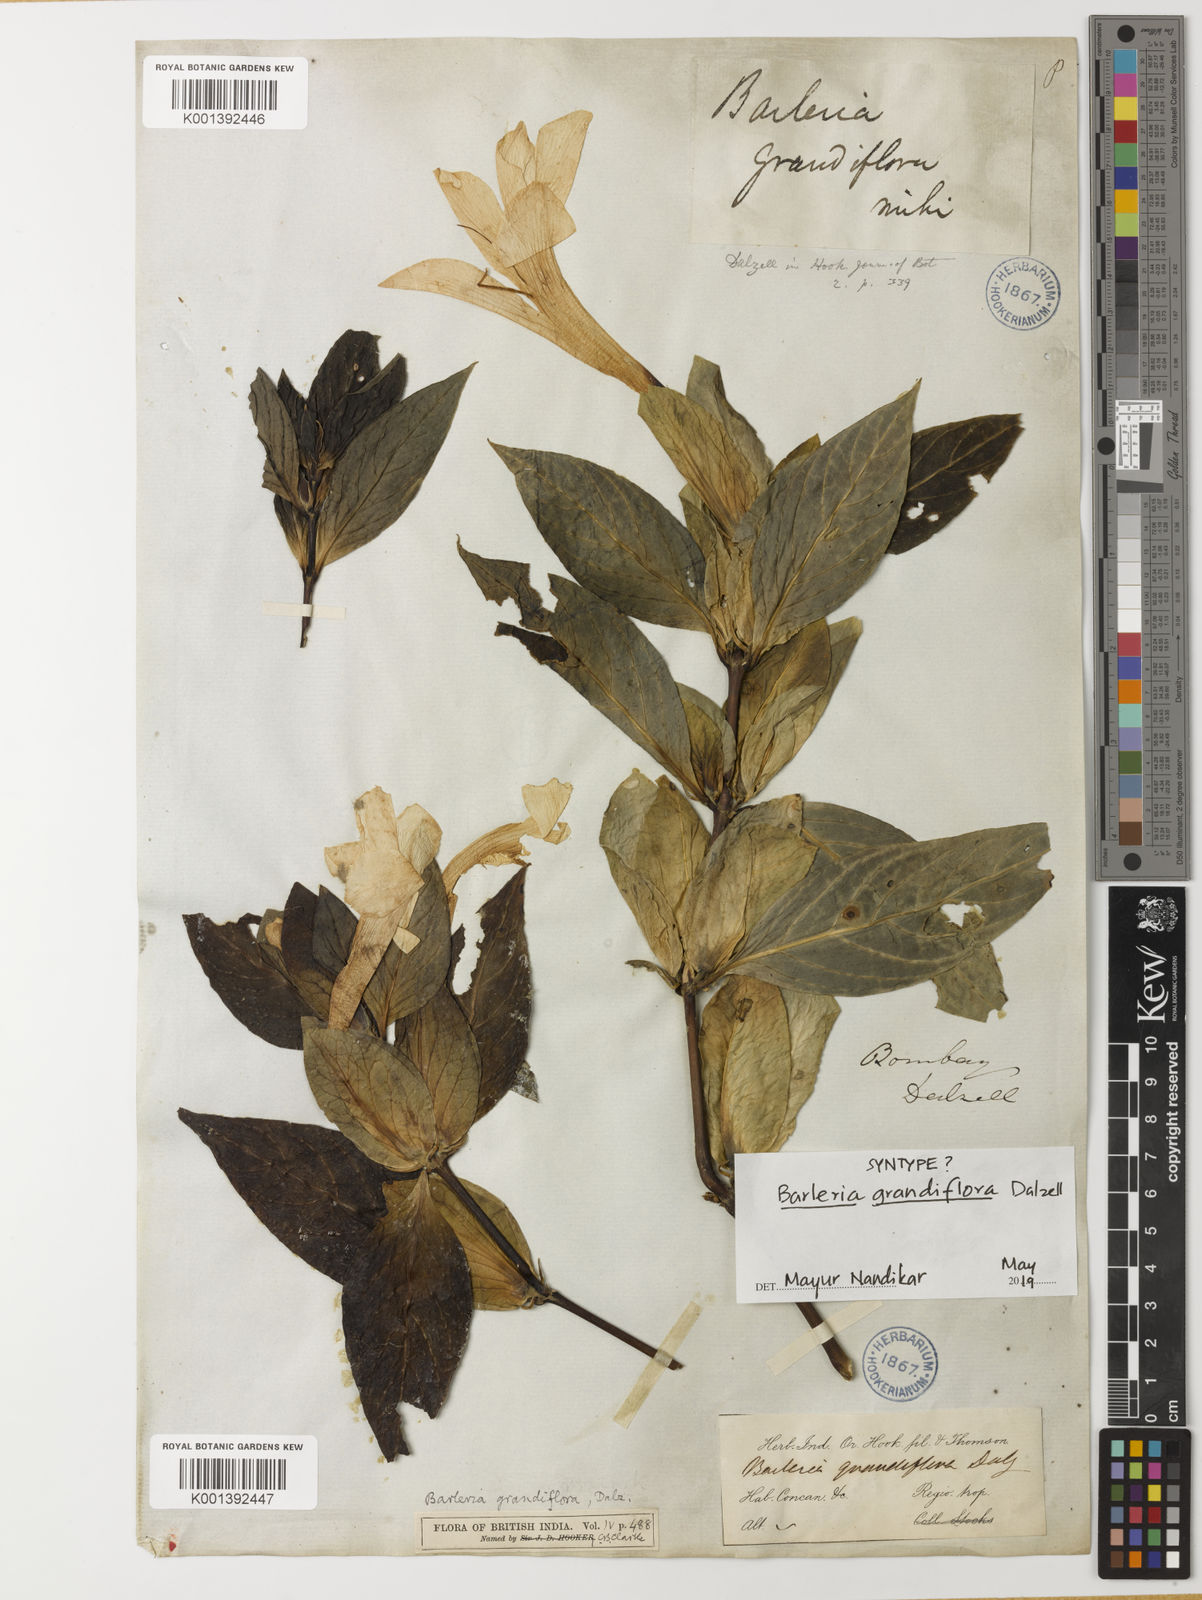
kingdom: Plantae
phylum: Tracheophyta
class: Magnoliopsida
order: Lamiales
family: Acanthaceae
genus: Barleria
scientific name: Barleria grandiflora
